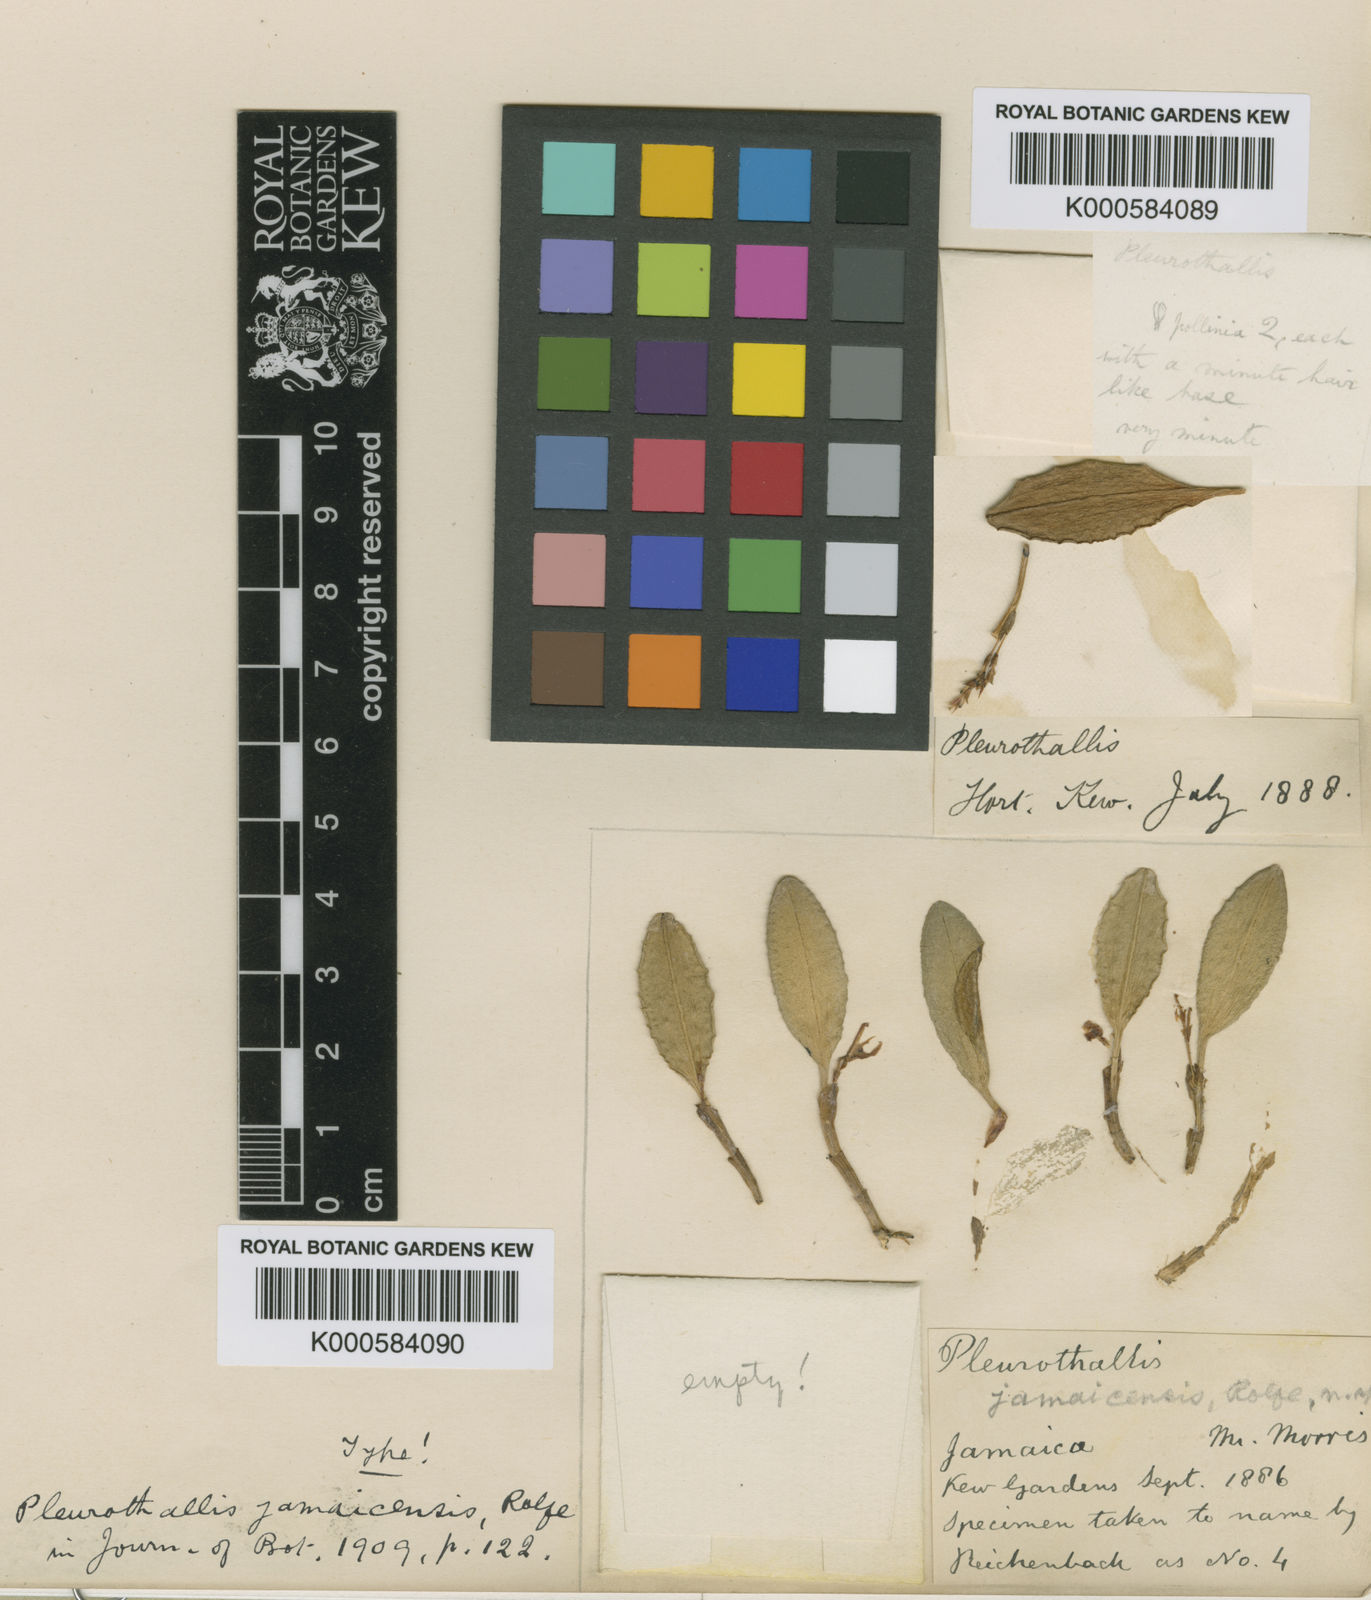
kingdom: Plantae
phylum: Tracheophyta
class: Liliopsida
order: Asparagales
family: Orchidaceae
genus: Anathallis
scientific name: Anathallis jamaicensis
